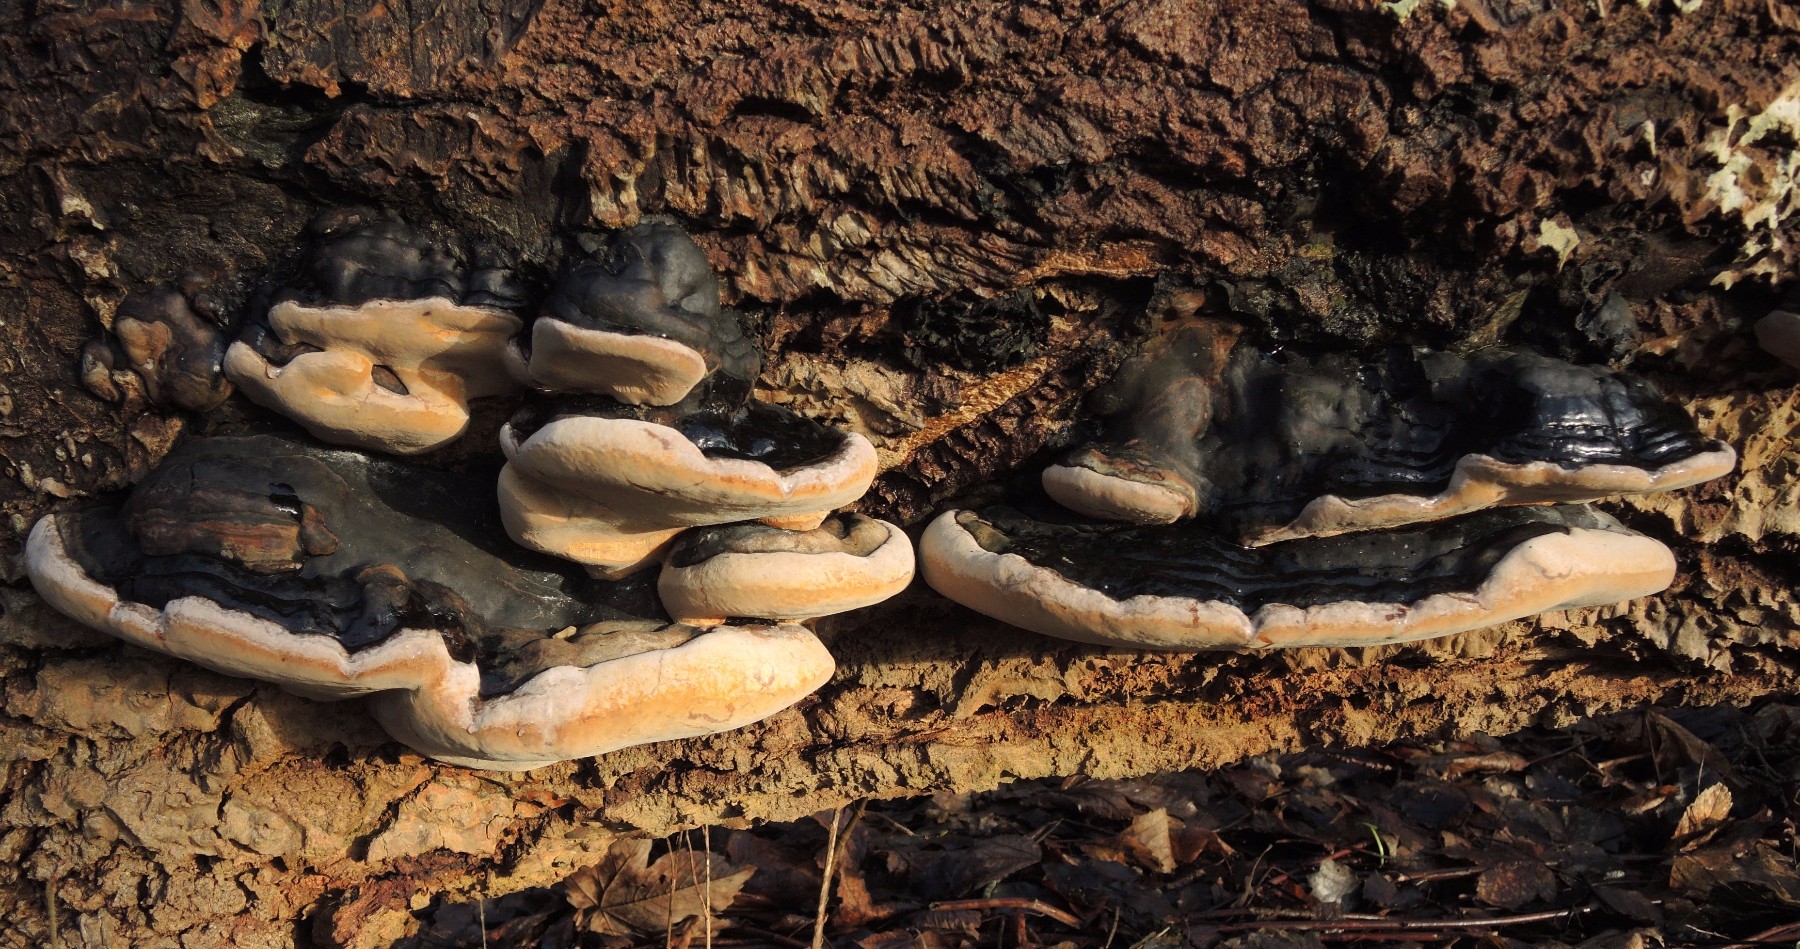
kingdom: Fungi
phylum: Basidiomycota
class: Agaricomycetes
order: Hymenochaetales
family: Hymenochaetaceae
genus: Phellinus
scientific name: Phellinus populicola
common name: poppel-ildporesvamp
